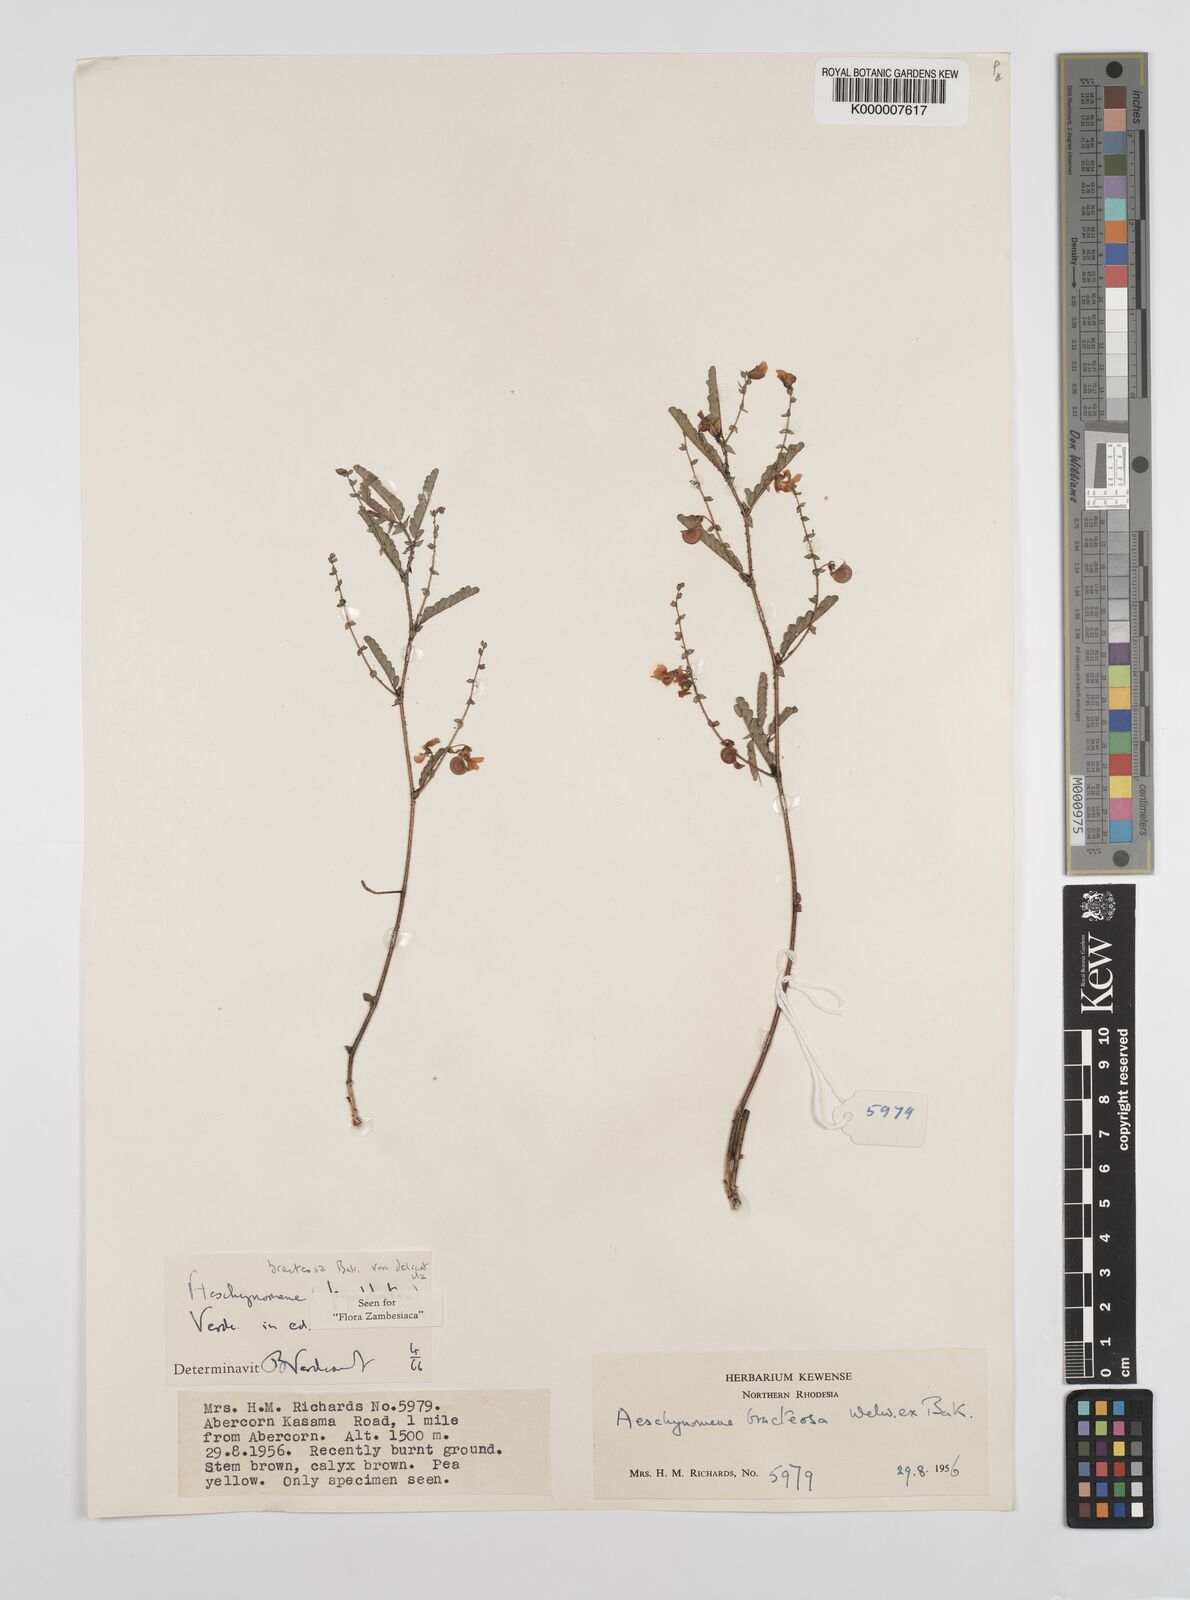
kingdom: Plantae
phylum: Tracheophyta
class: Magnoliopsida
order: Fabales
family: Fabaceae
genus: Aeschynomene
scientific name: Aeschynomene bracteosa
